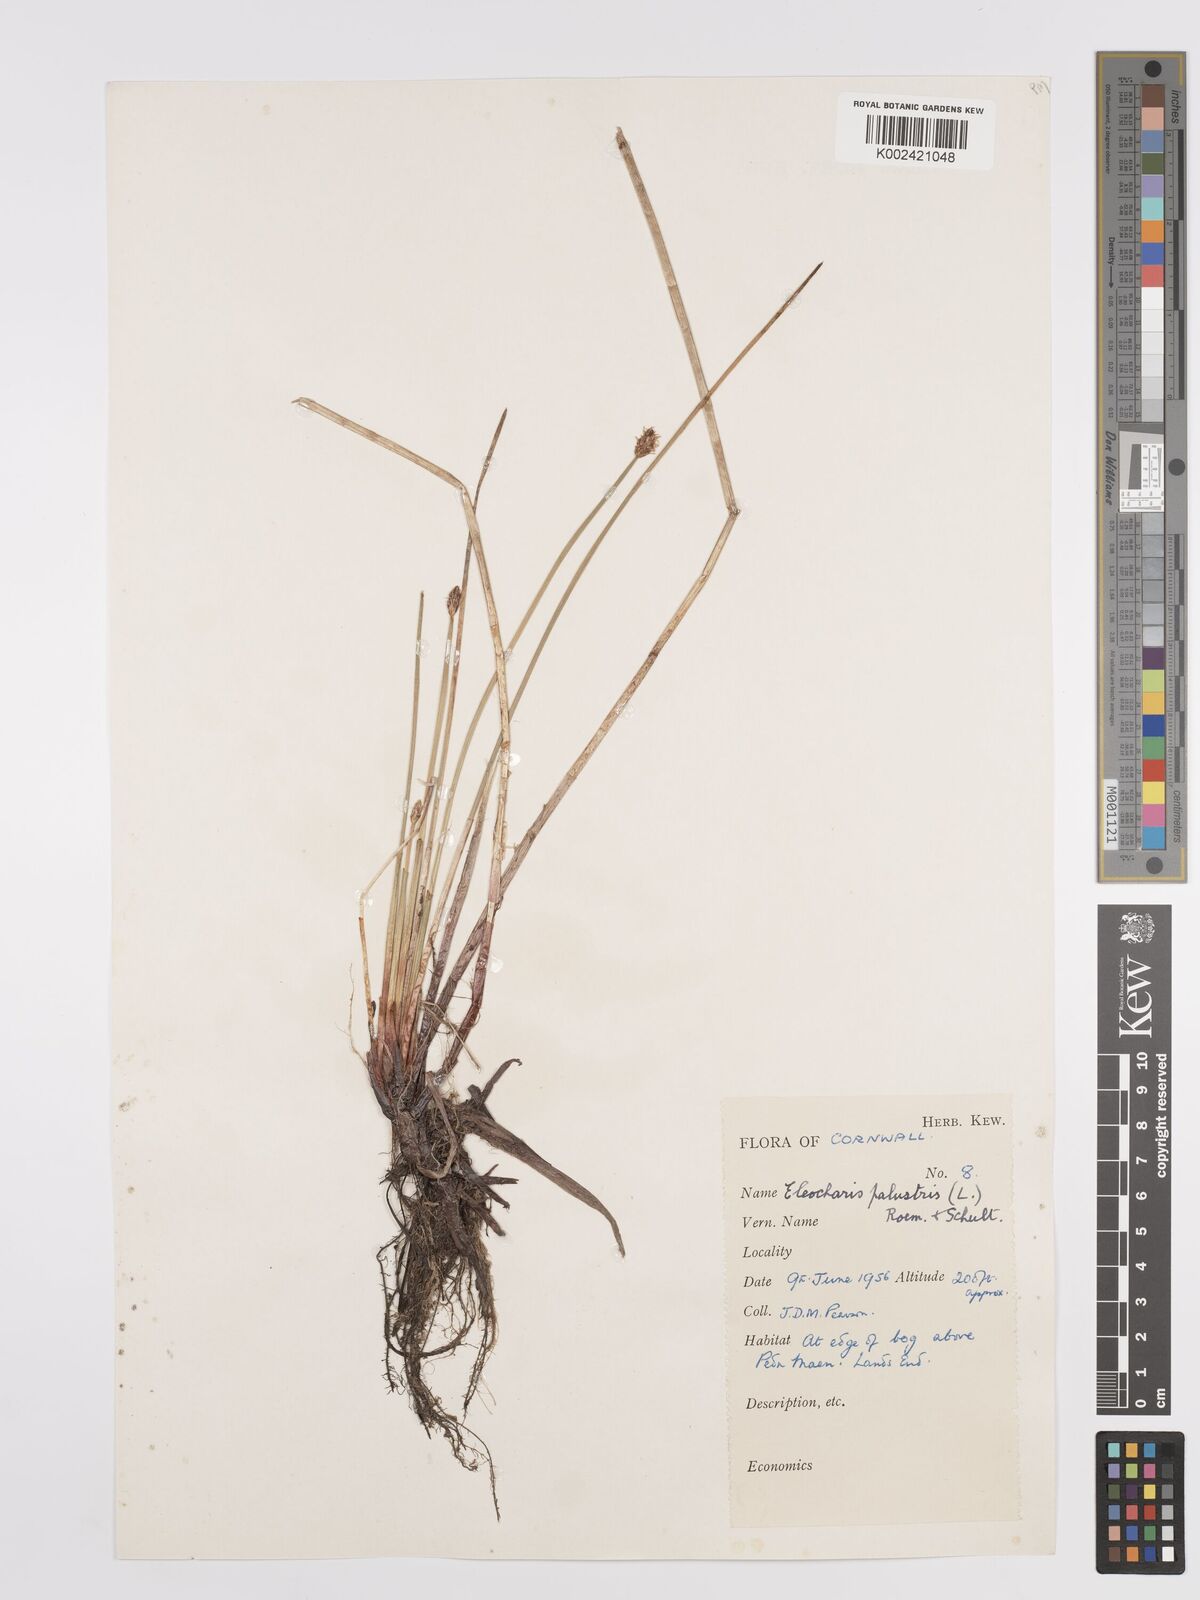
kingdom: Plantae
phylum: Tracheophyta
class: Liliopsida
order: Poales
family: Cyperaceae
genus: Eleocharis
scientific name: Eleocharis palustris
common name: Common spike-rush
